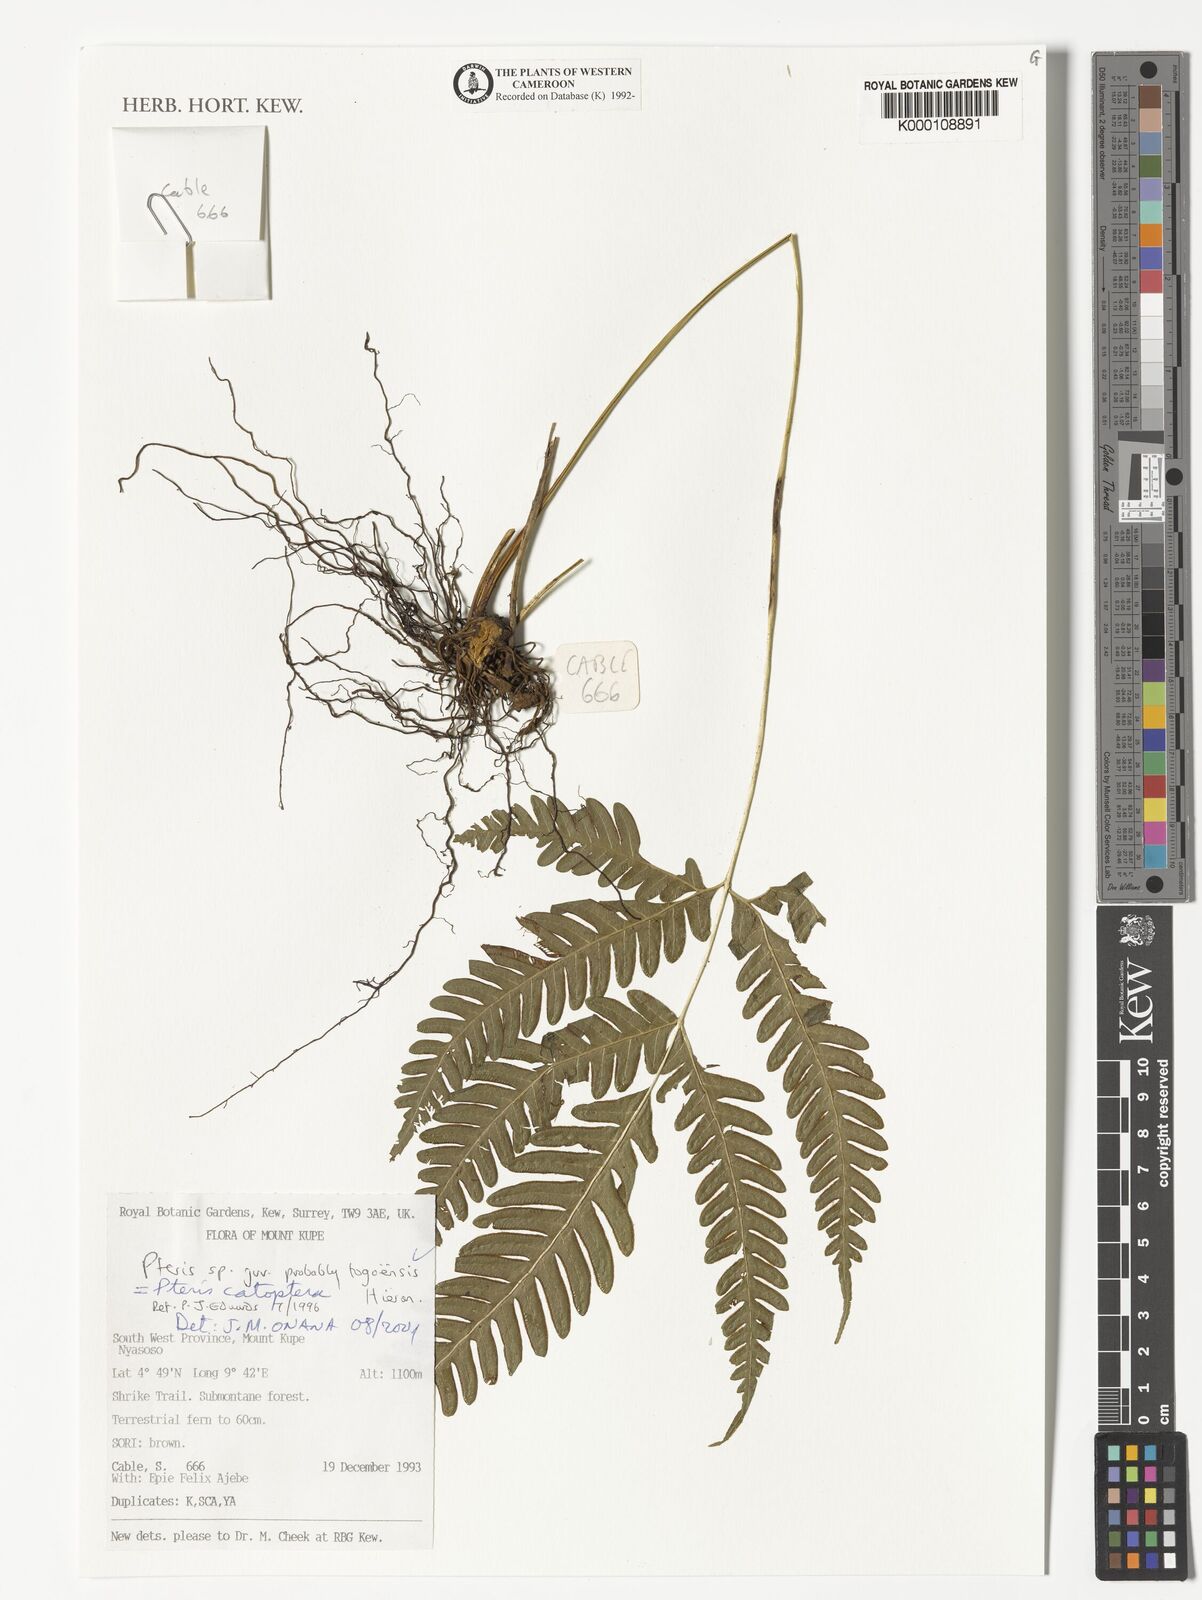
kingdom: Plantae
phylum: Tracheophyta
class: Polypodiopsida
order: Polypodiales
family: Pteridaceae
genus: Pteris
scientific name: Pteris togoensis
